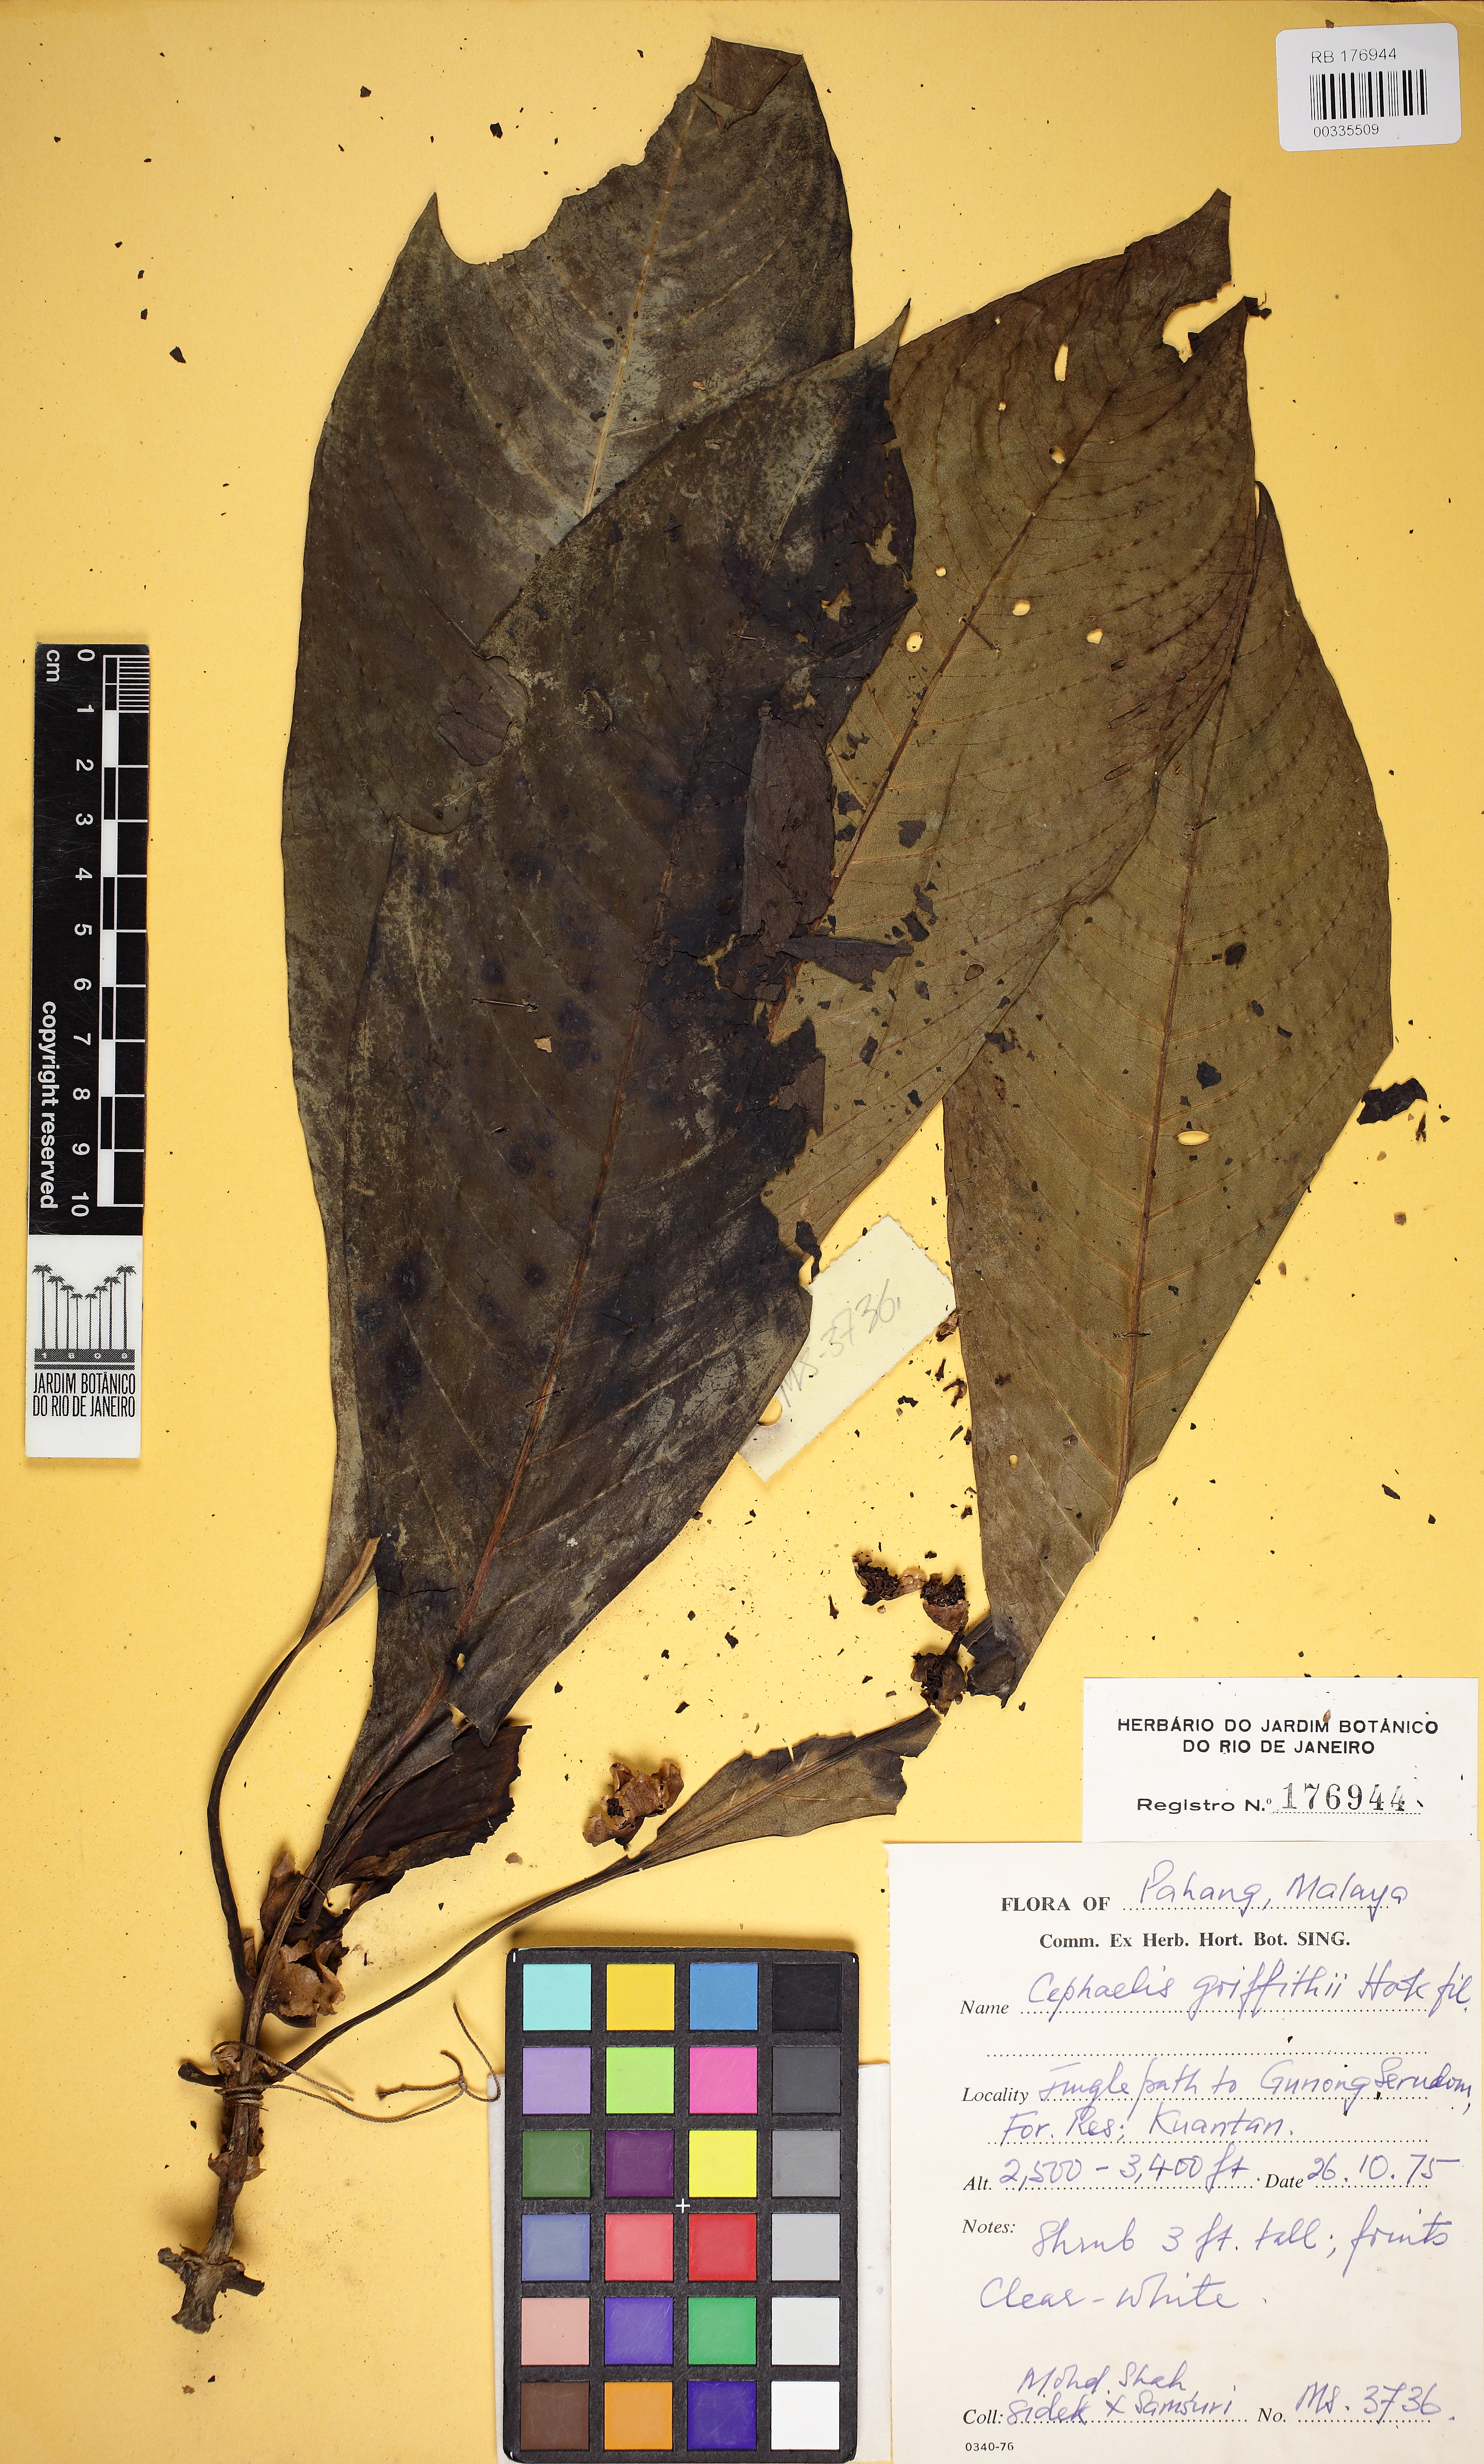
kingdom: Plantae
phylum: Tracheophyta
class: Magnoliopsida
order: Gentianales
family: Rubiaceae
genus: Chassalia
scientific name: Chassalia griffithii
